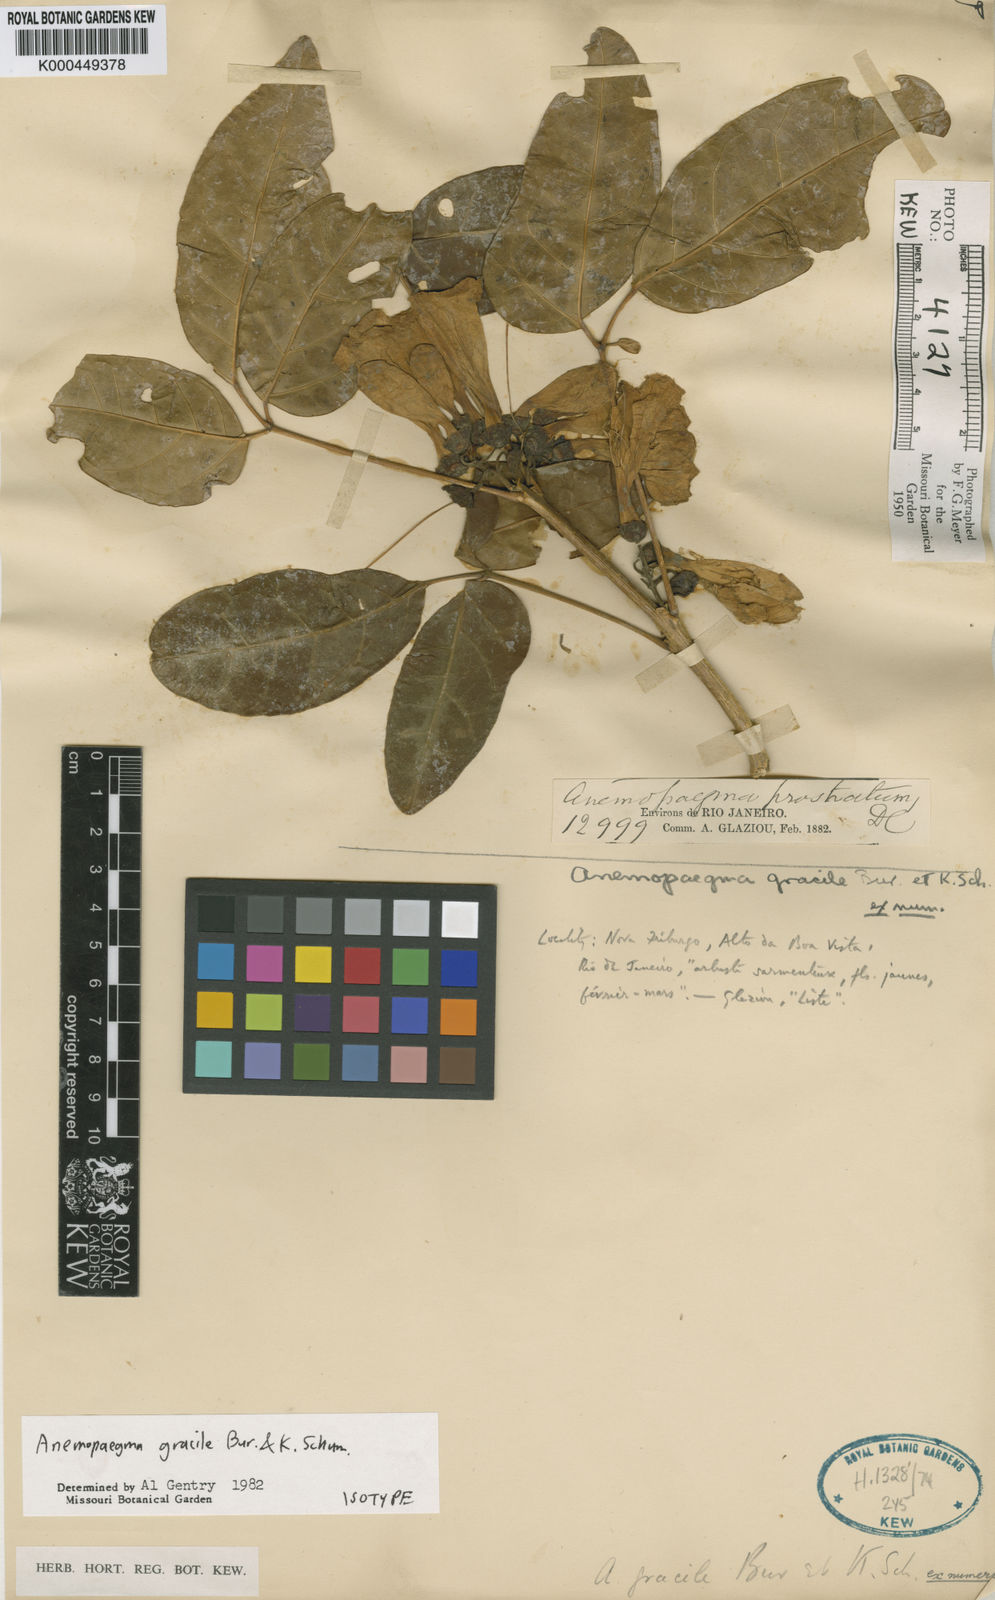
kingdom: Plantae
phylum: Tracheophyta
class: Magnoliopsida
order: Lamiales
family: Bignoniaceae
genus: Anemopaegma
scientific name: Anemopaegma gracile
